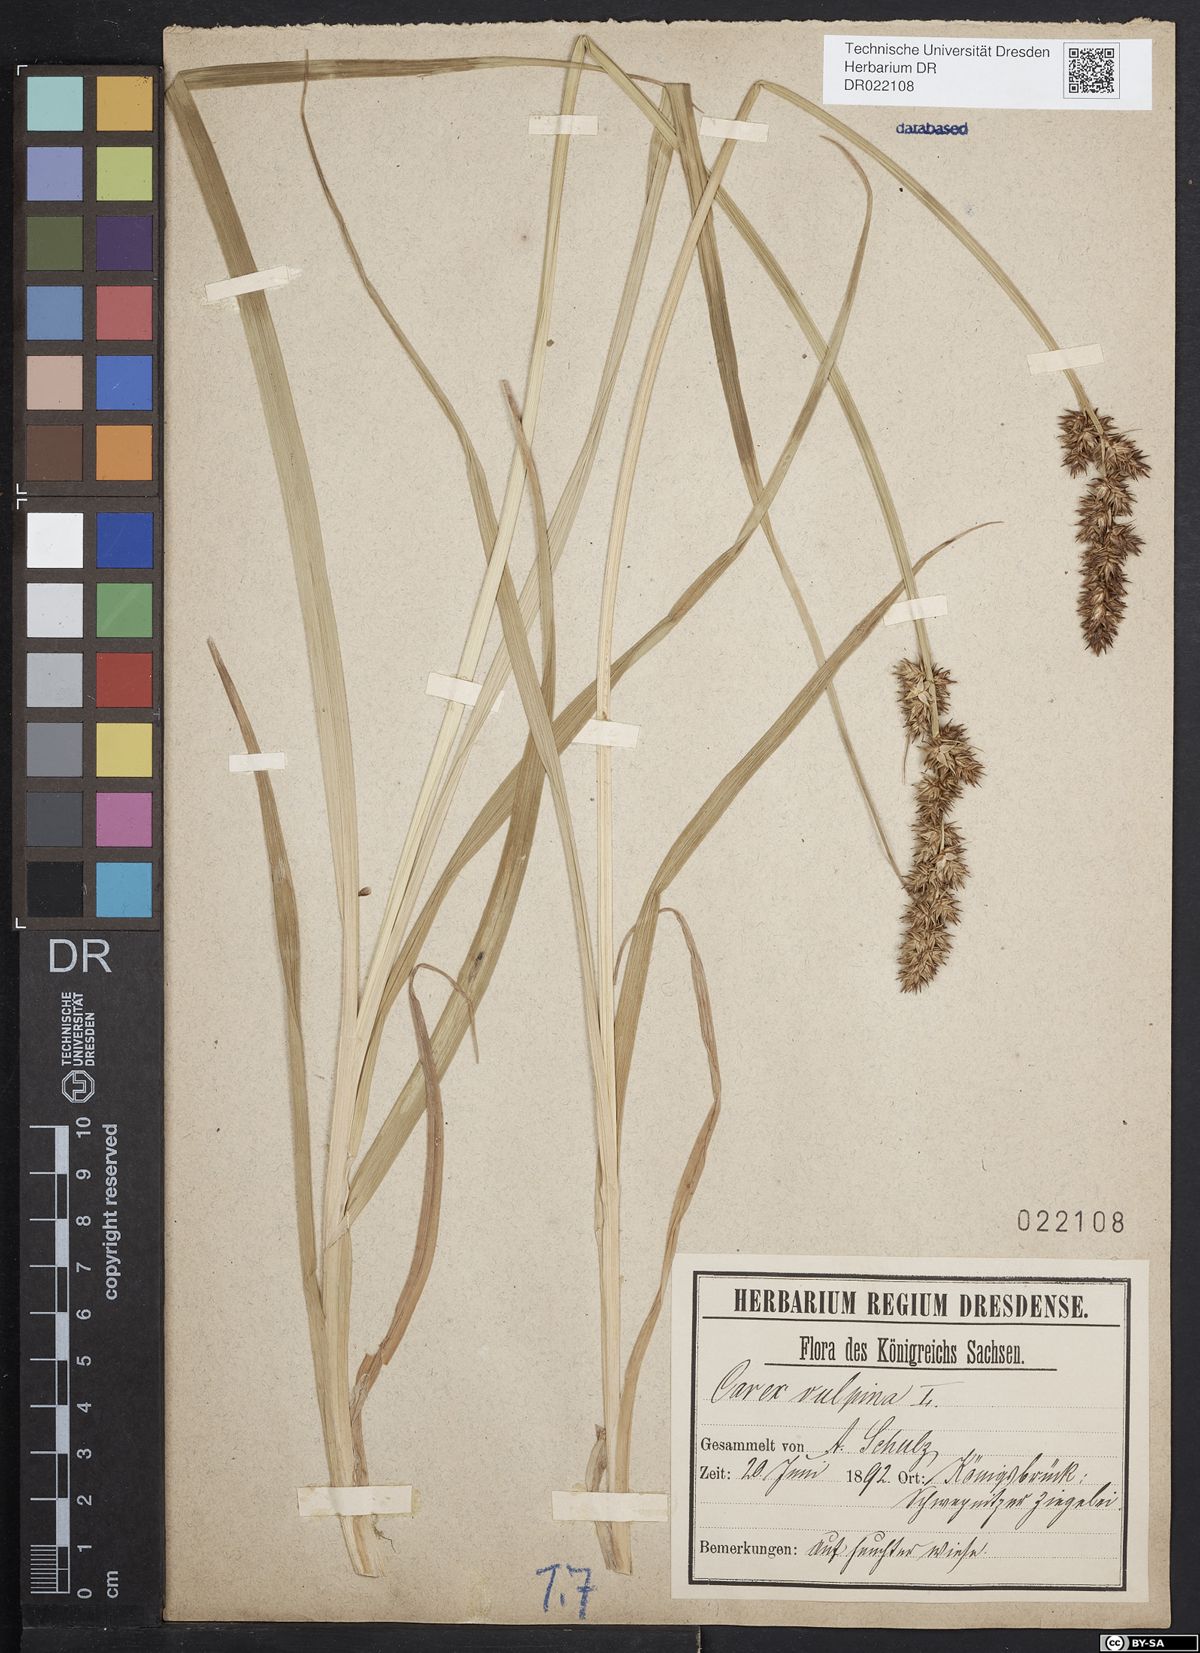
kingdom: Plantae
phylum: Tracheophyta
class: Liliopsida
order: Poales
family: Cyperaceae
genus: Carex
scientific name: Carex vulpina
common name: True fox-sedge
